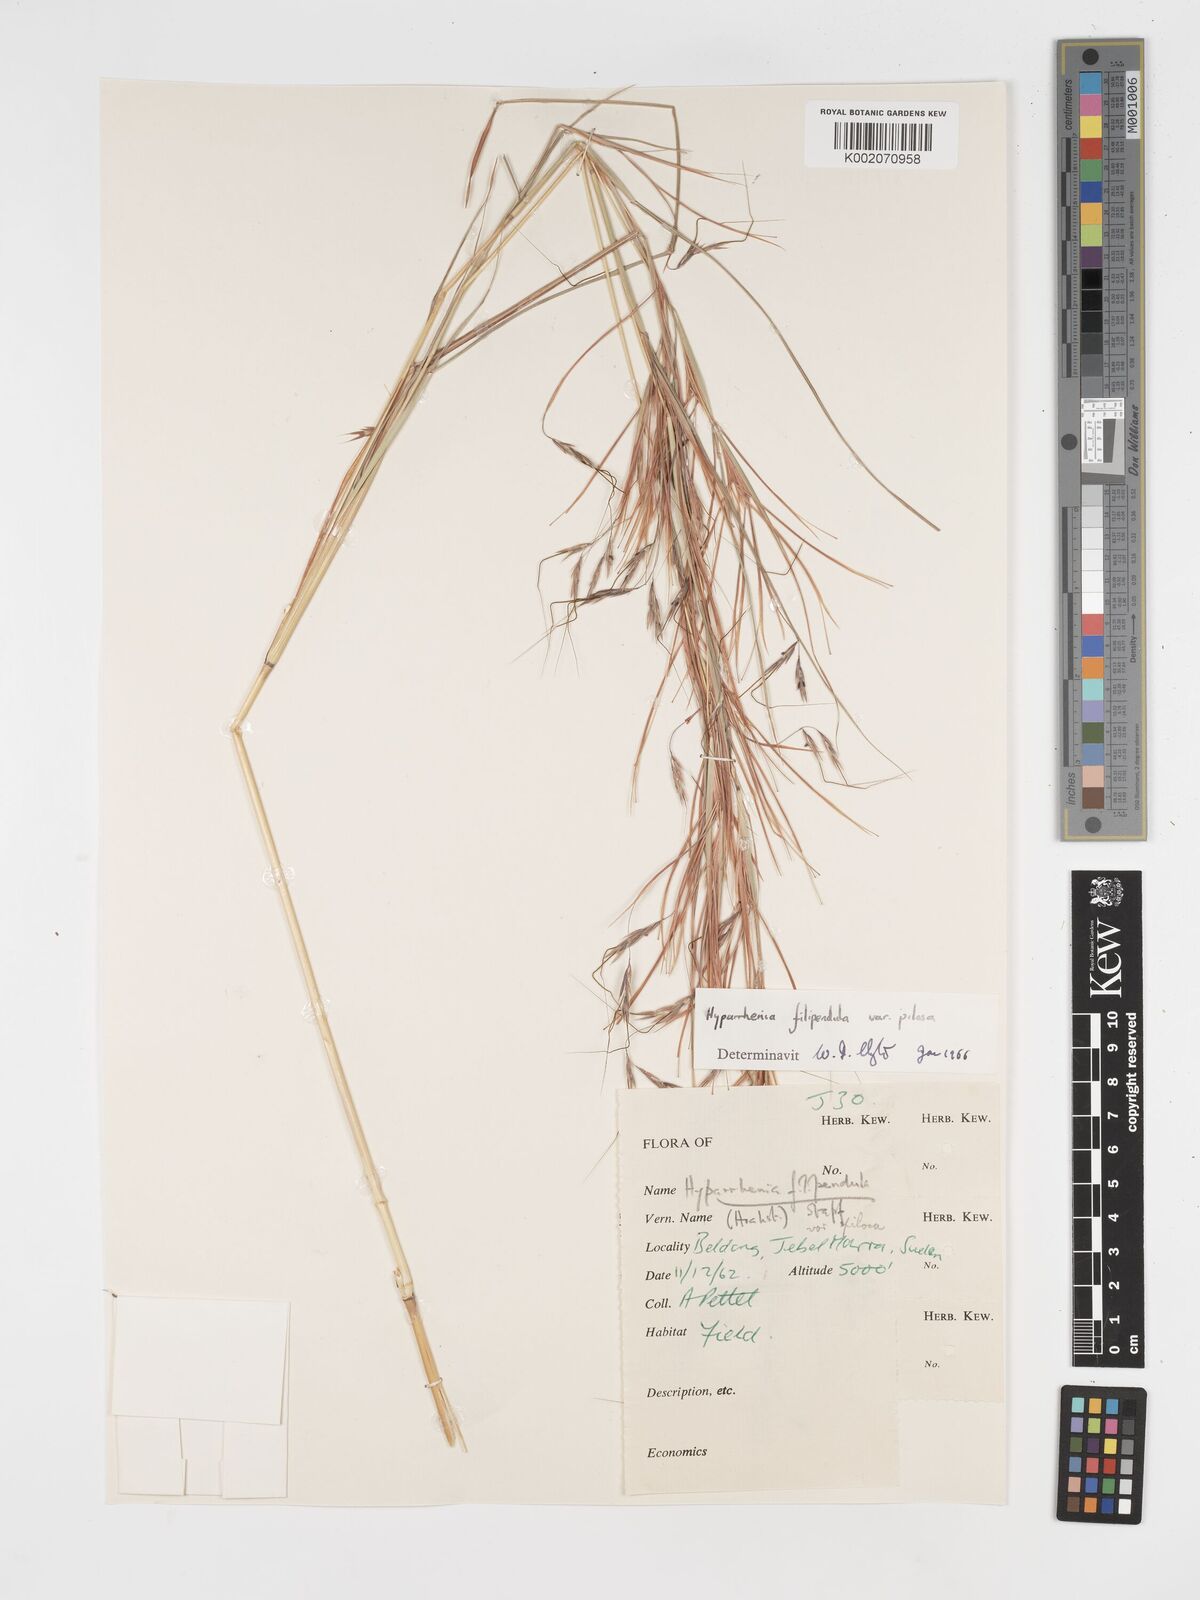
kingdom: Plantae
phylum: Tracheophyta
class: Liliopsida
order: Poales
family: Poaceae
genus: Hyparrhenia
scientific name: Hyparrhenia filipendula
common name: Tambookie grass
